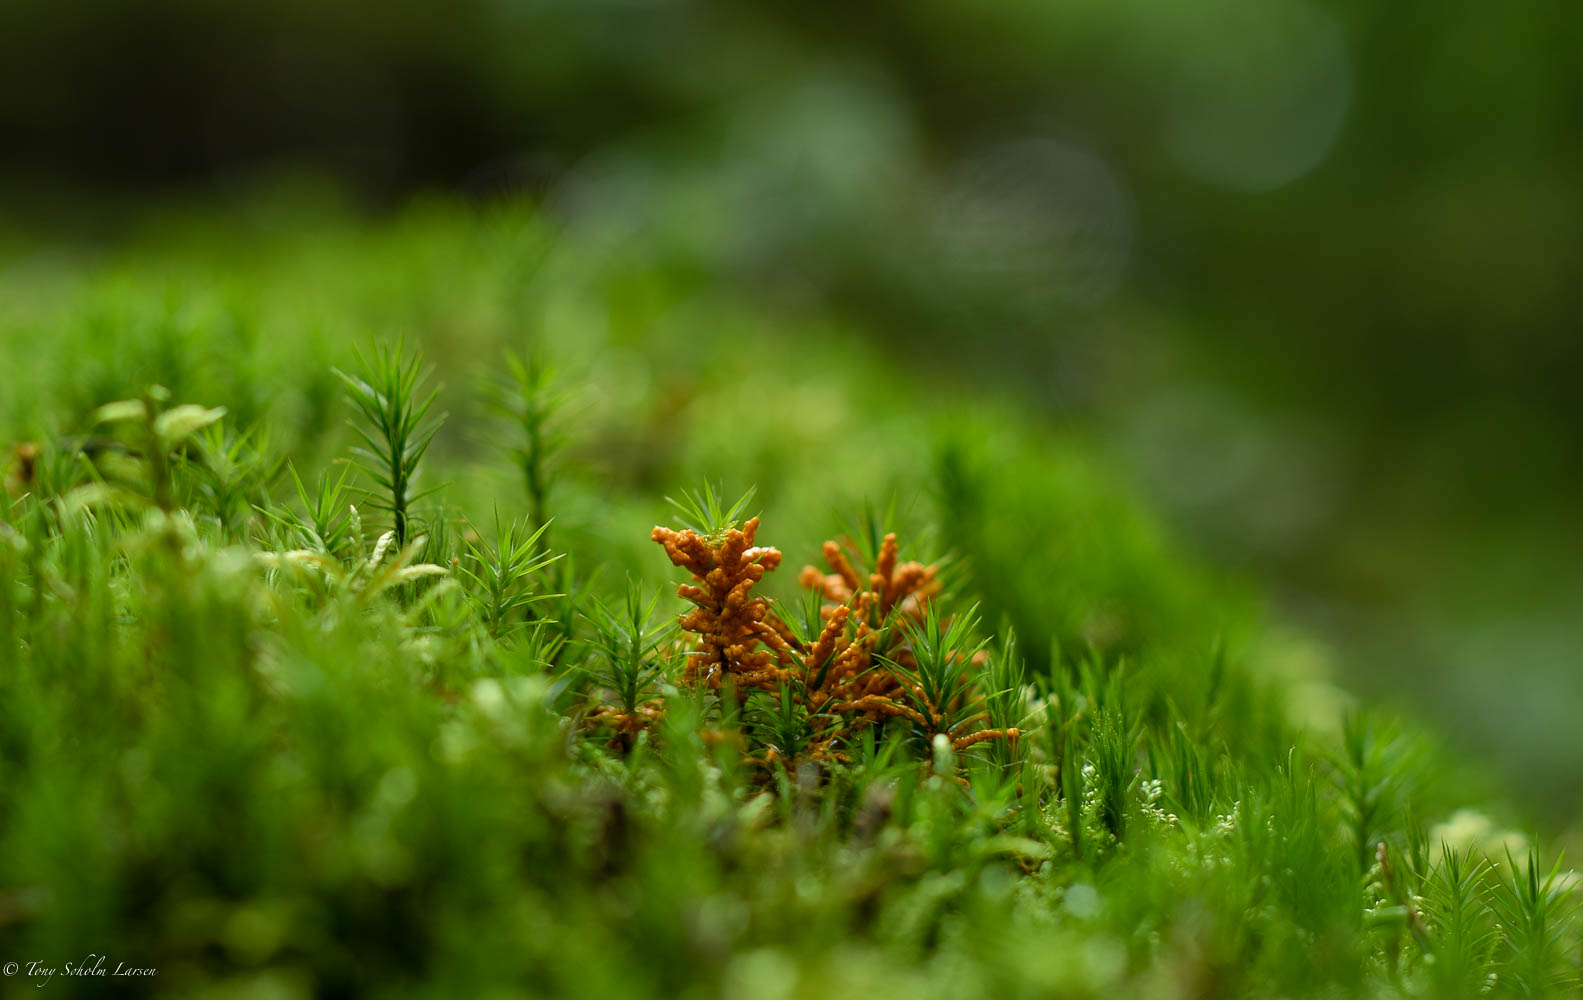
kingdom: Protozoa
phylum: Mycetozoa
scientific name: Mycetozoa
